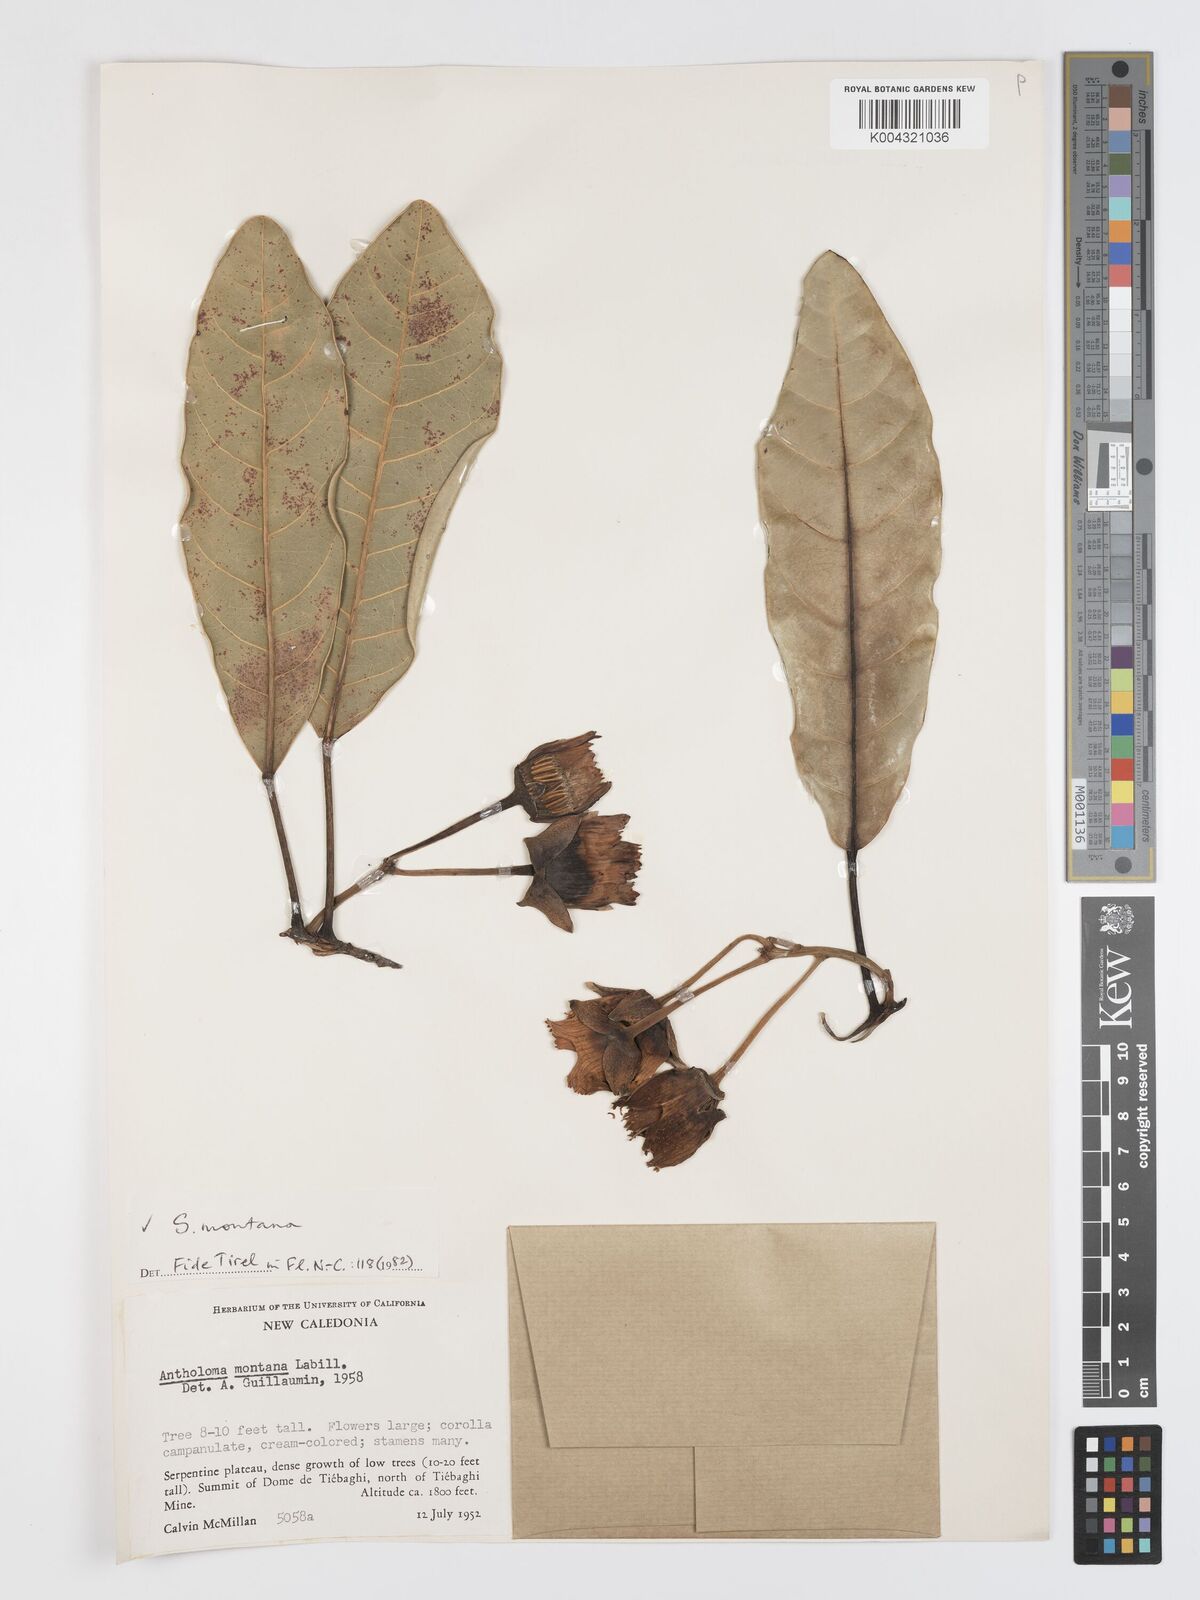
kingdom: Plantae
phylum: Tracheophyta
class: Magnoliopsida
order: Oxalidales
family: Elaeocarpaceae
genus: Sloanea
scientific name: Sloanea montana
